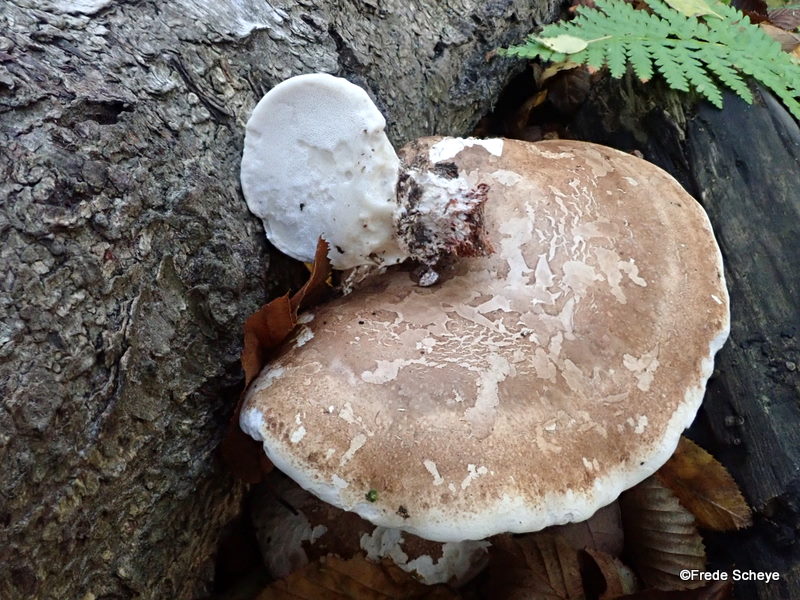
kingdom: Fungi
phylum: Basidiomycota
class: Agaricomycetes
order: Polyporales
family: Fomitopsidaceae
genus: Fomitopsis
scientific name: Fomitopsis betulina
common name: birkeporesvamp
